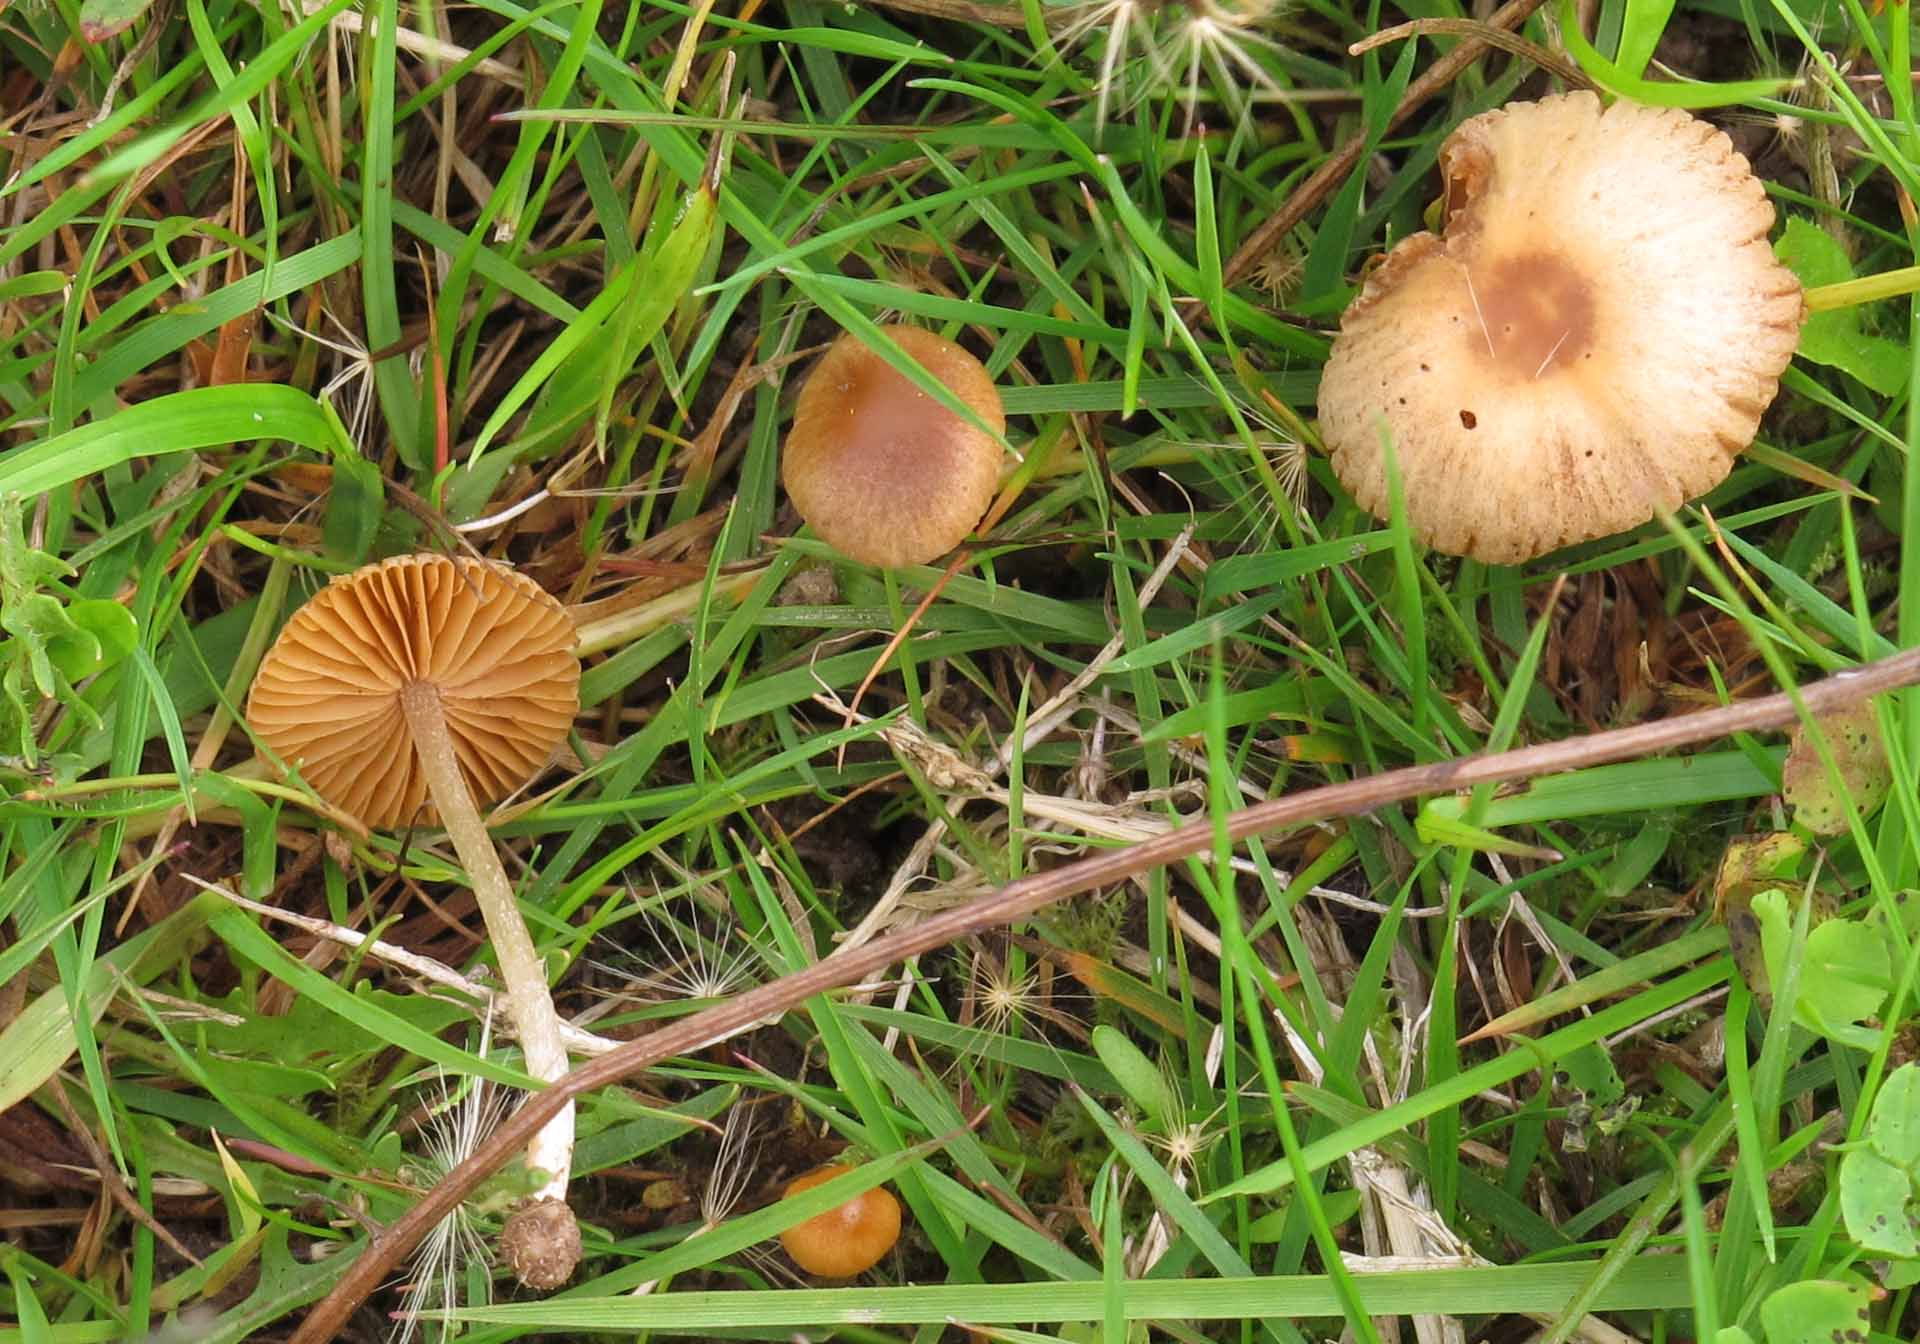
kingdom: Fungi
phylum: Basidiomycota
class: Agaricomycetes
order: Agaricales
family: Bolbitiaceae
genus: Pholiotina
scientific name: Pholiotina sulcata
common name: plisseret dansehat
